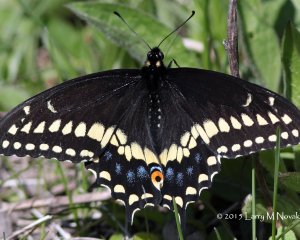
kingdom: Animalia
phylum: Arthropoda
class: Insecta
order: Lepidoptera
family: Papilionidae
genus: Papilio
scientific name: Papilio polyxenes
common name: Black Swallowtail
